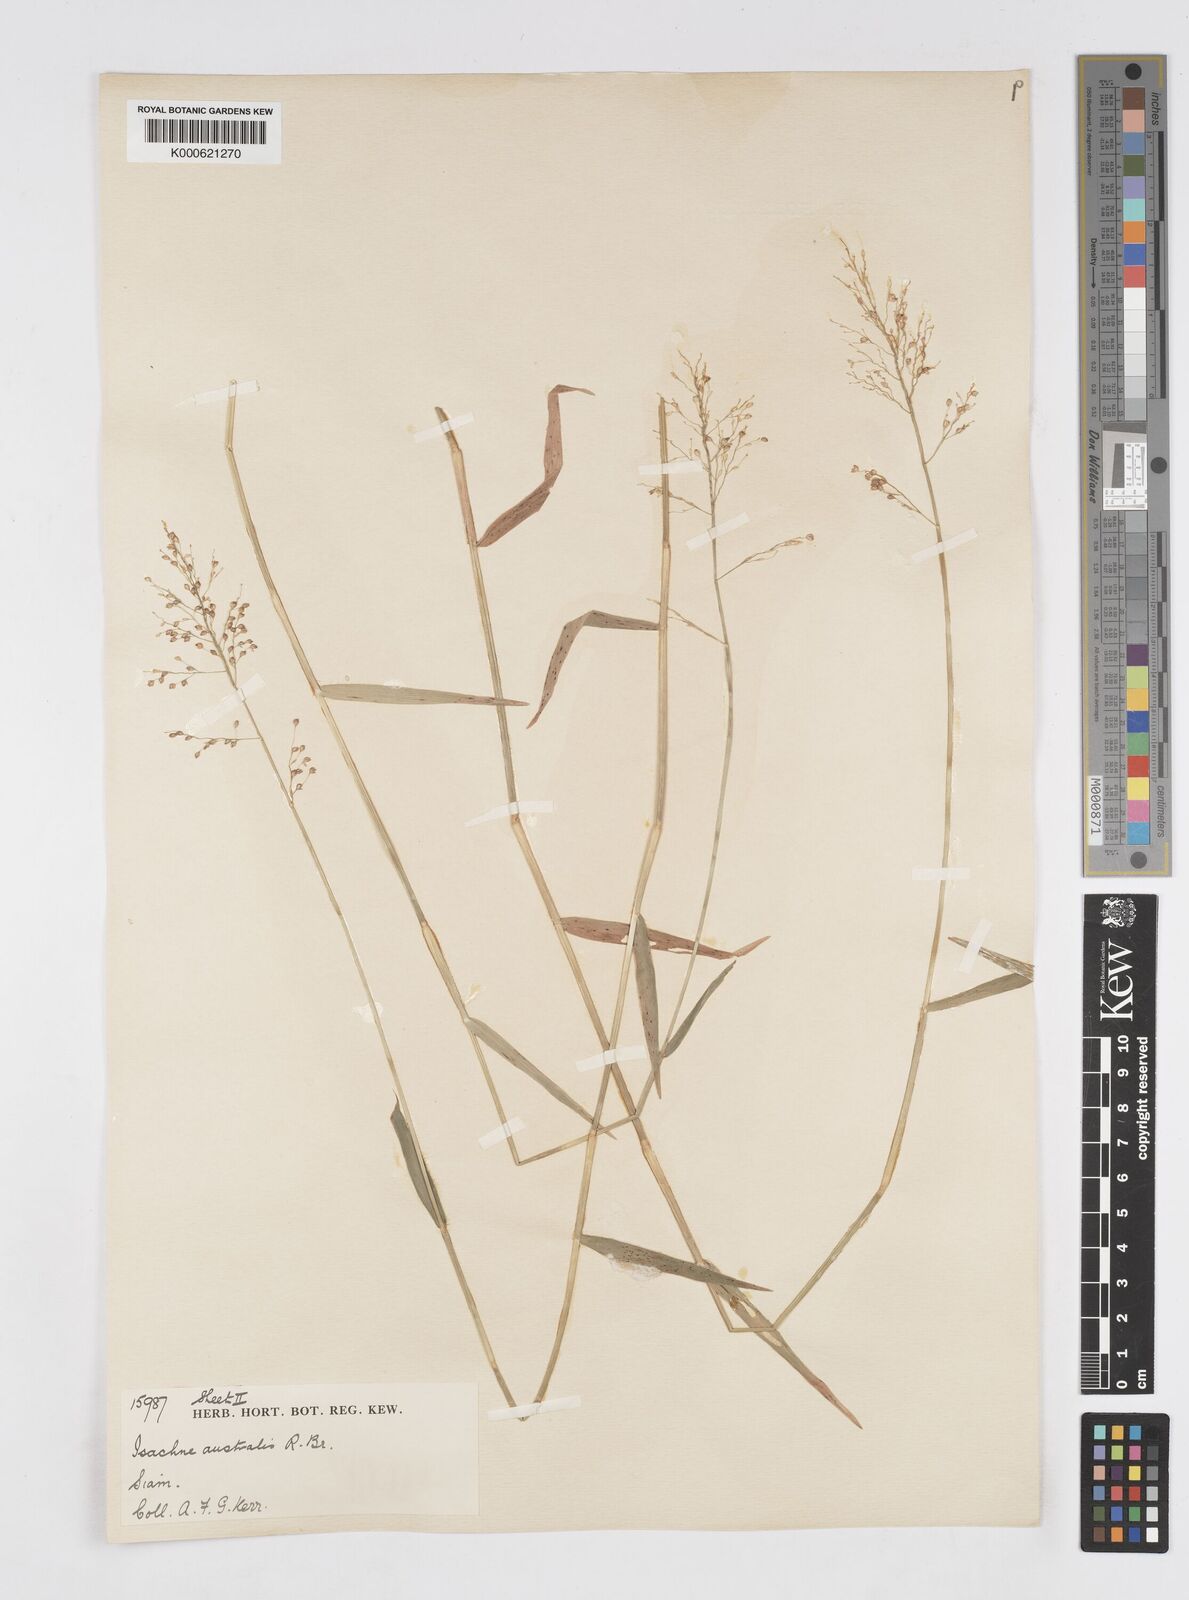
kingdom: Plantae
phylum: Tracheophyta
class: Liliopsida
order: Poales
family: Poaceae
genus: Isachne
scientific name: Isachne globosa
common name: Swamp millet
